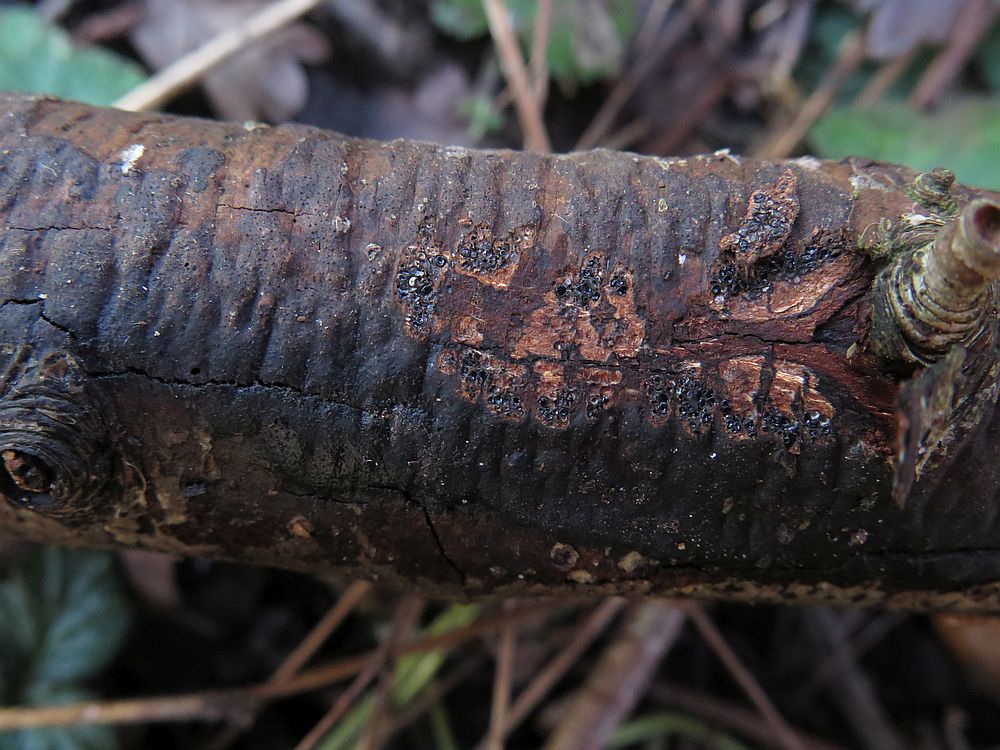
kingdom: Fungi
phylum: Ascomycota
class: Sordariomycetes
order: Xylariales
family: Diatrypaceae
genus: Eutypa
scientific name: Eutypa
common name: kulskorpe
